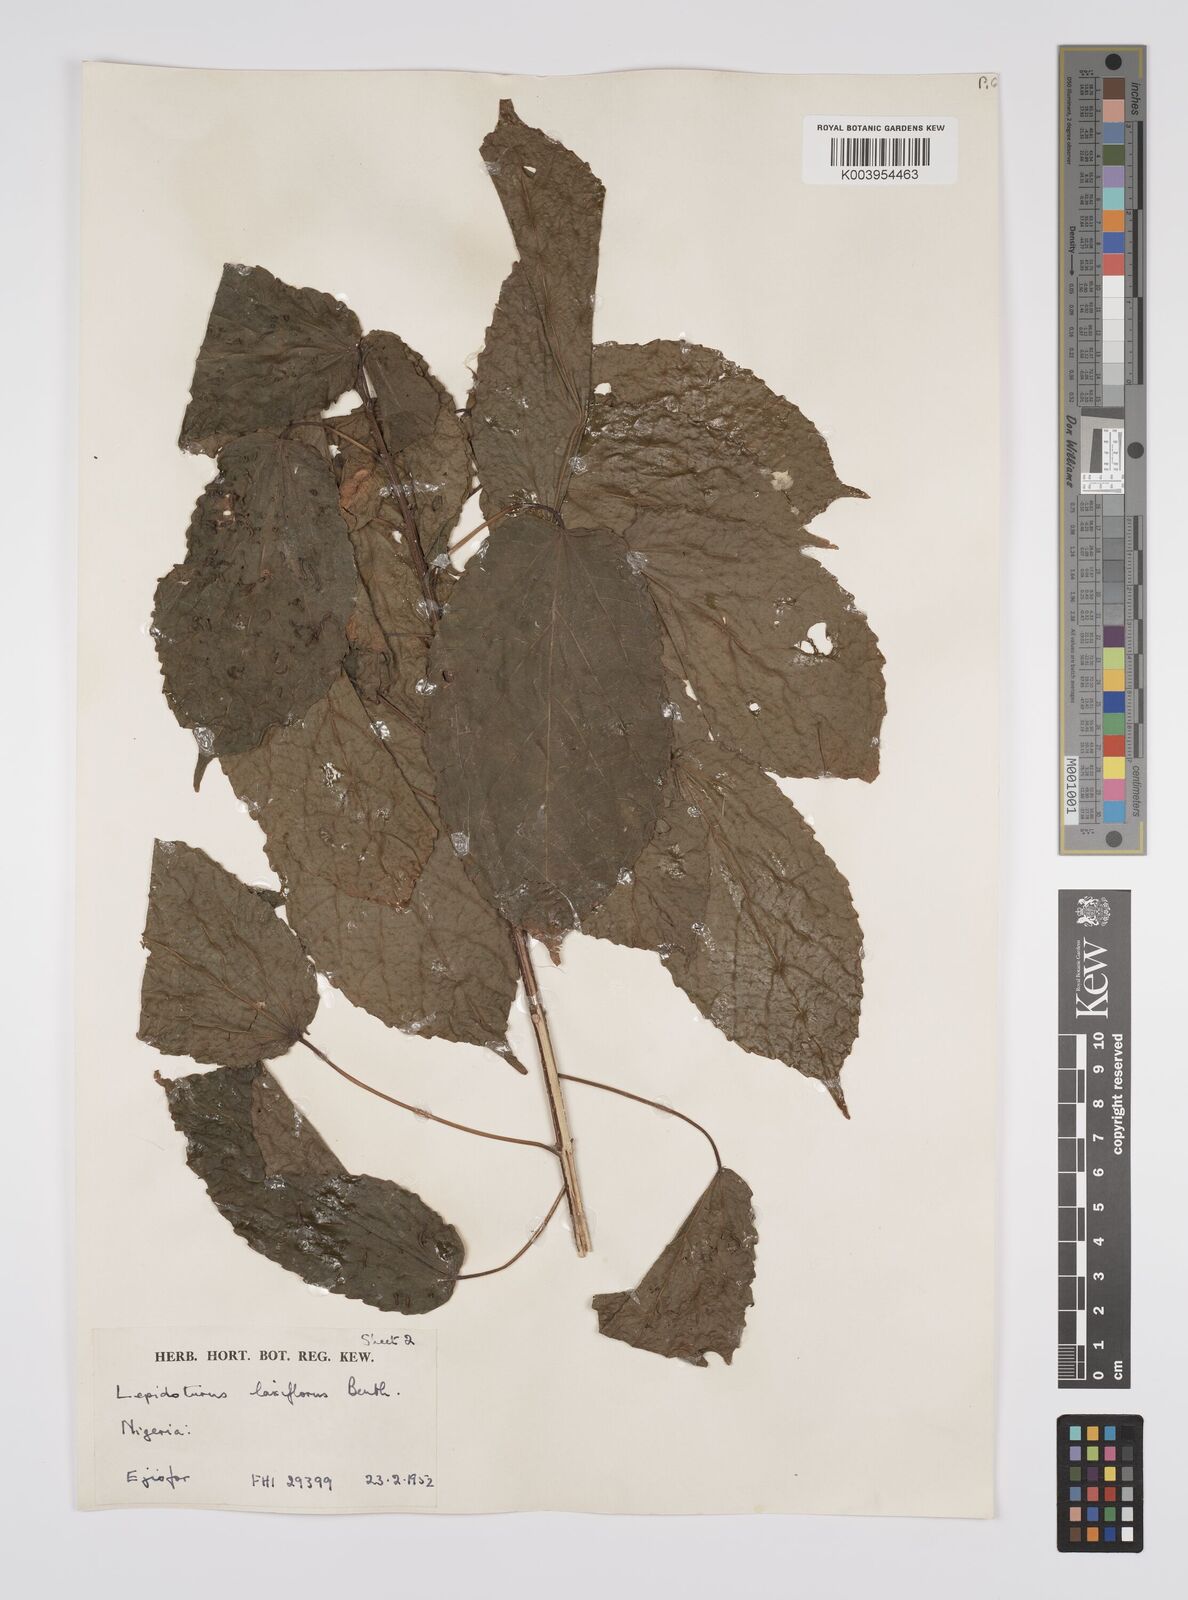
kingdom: Plantae
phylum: Tracheophyta
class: Magnoliopsida
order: Malpighiales
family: Euphorbiaceae
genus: Alchornea
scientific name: Alchornea laxiflora
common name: Lowveld bead-string
